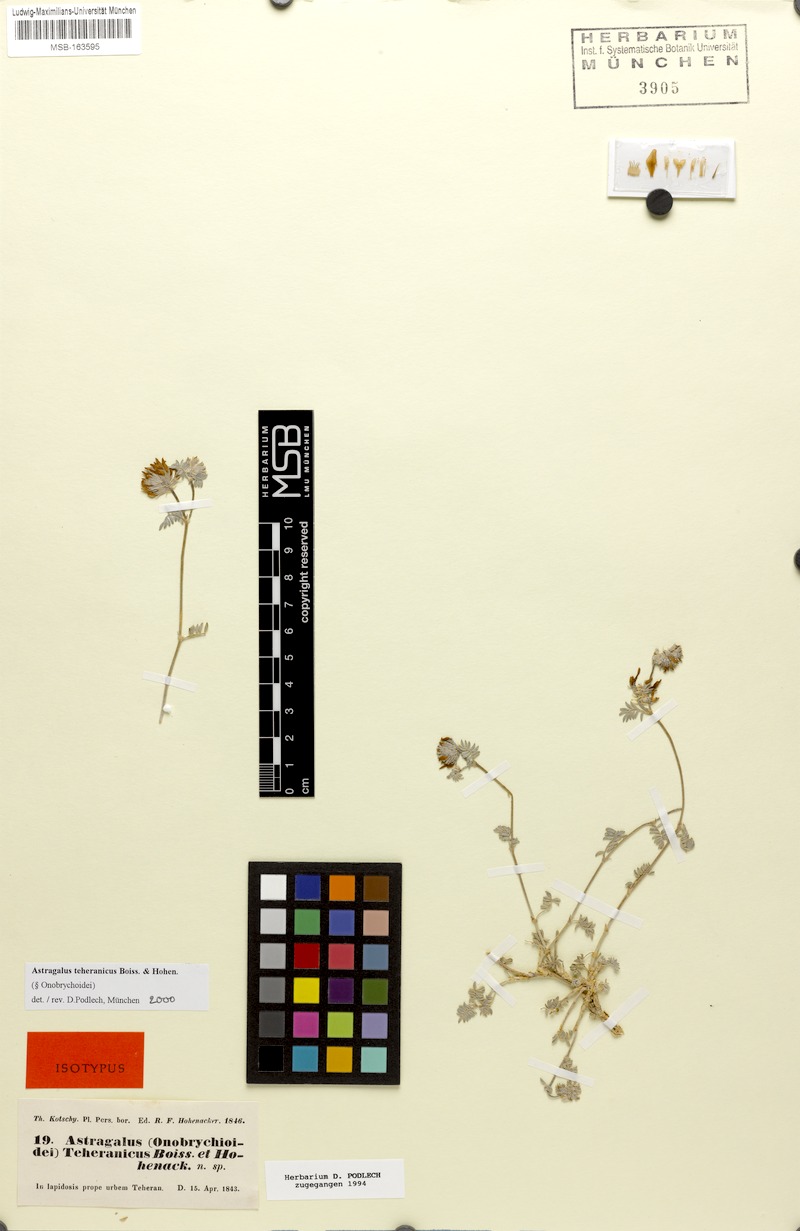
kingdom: Plantae
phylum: Tracheophyta
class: Magnoliopsida
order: Fabales
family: Fabaceae
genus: Astragalus
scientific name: Astragalus teheranicus
